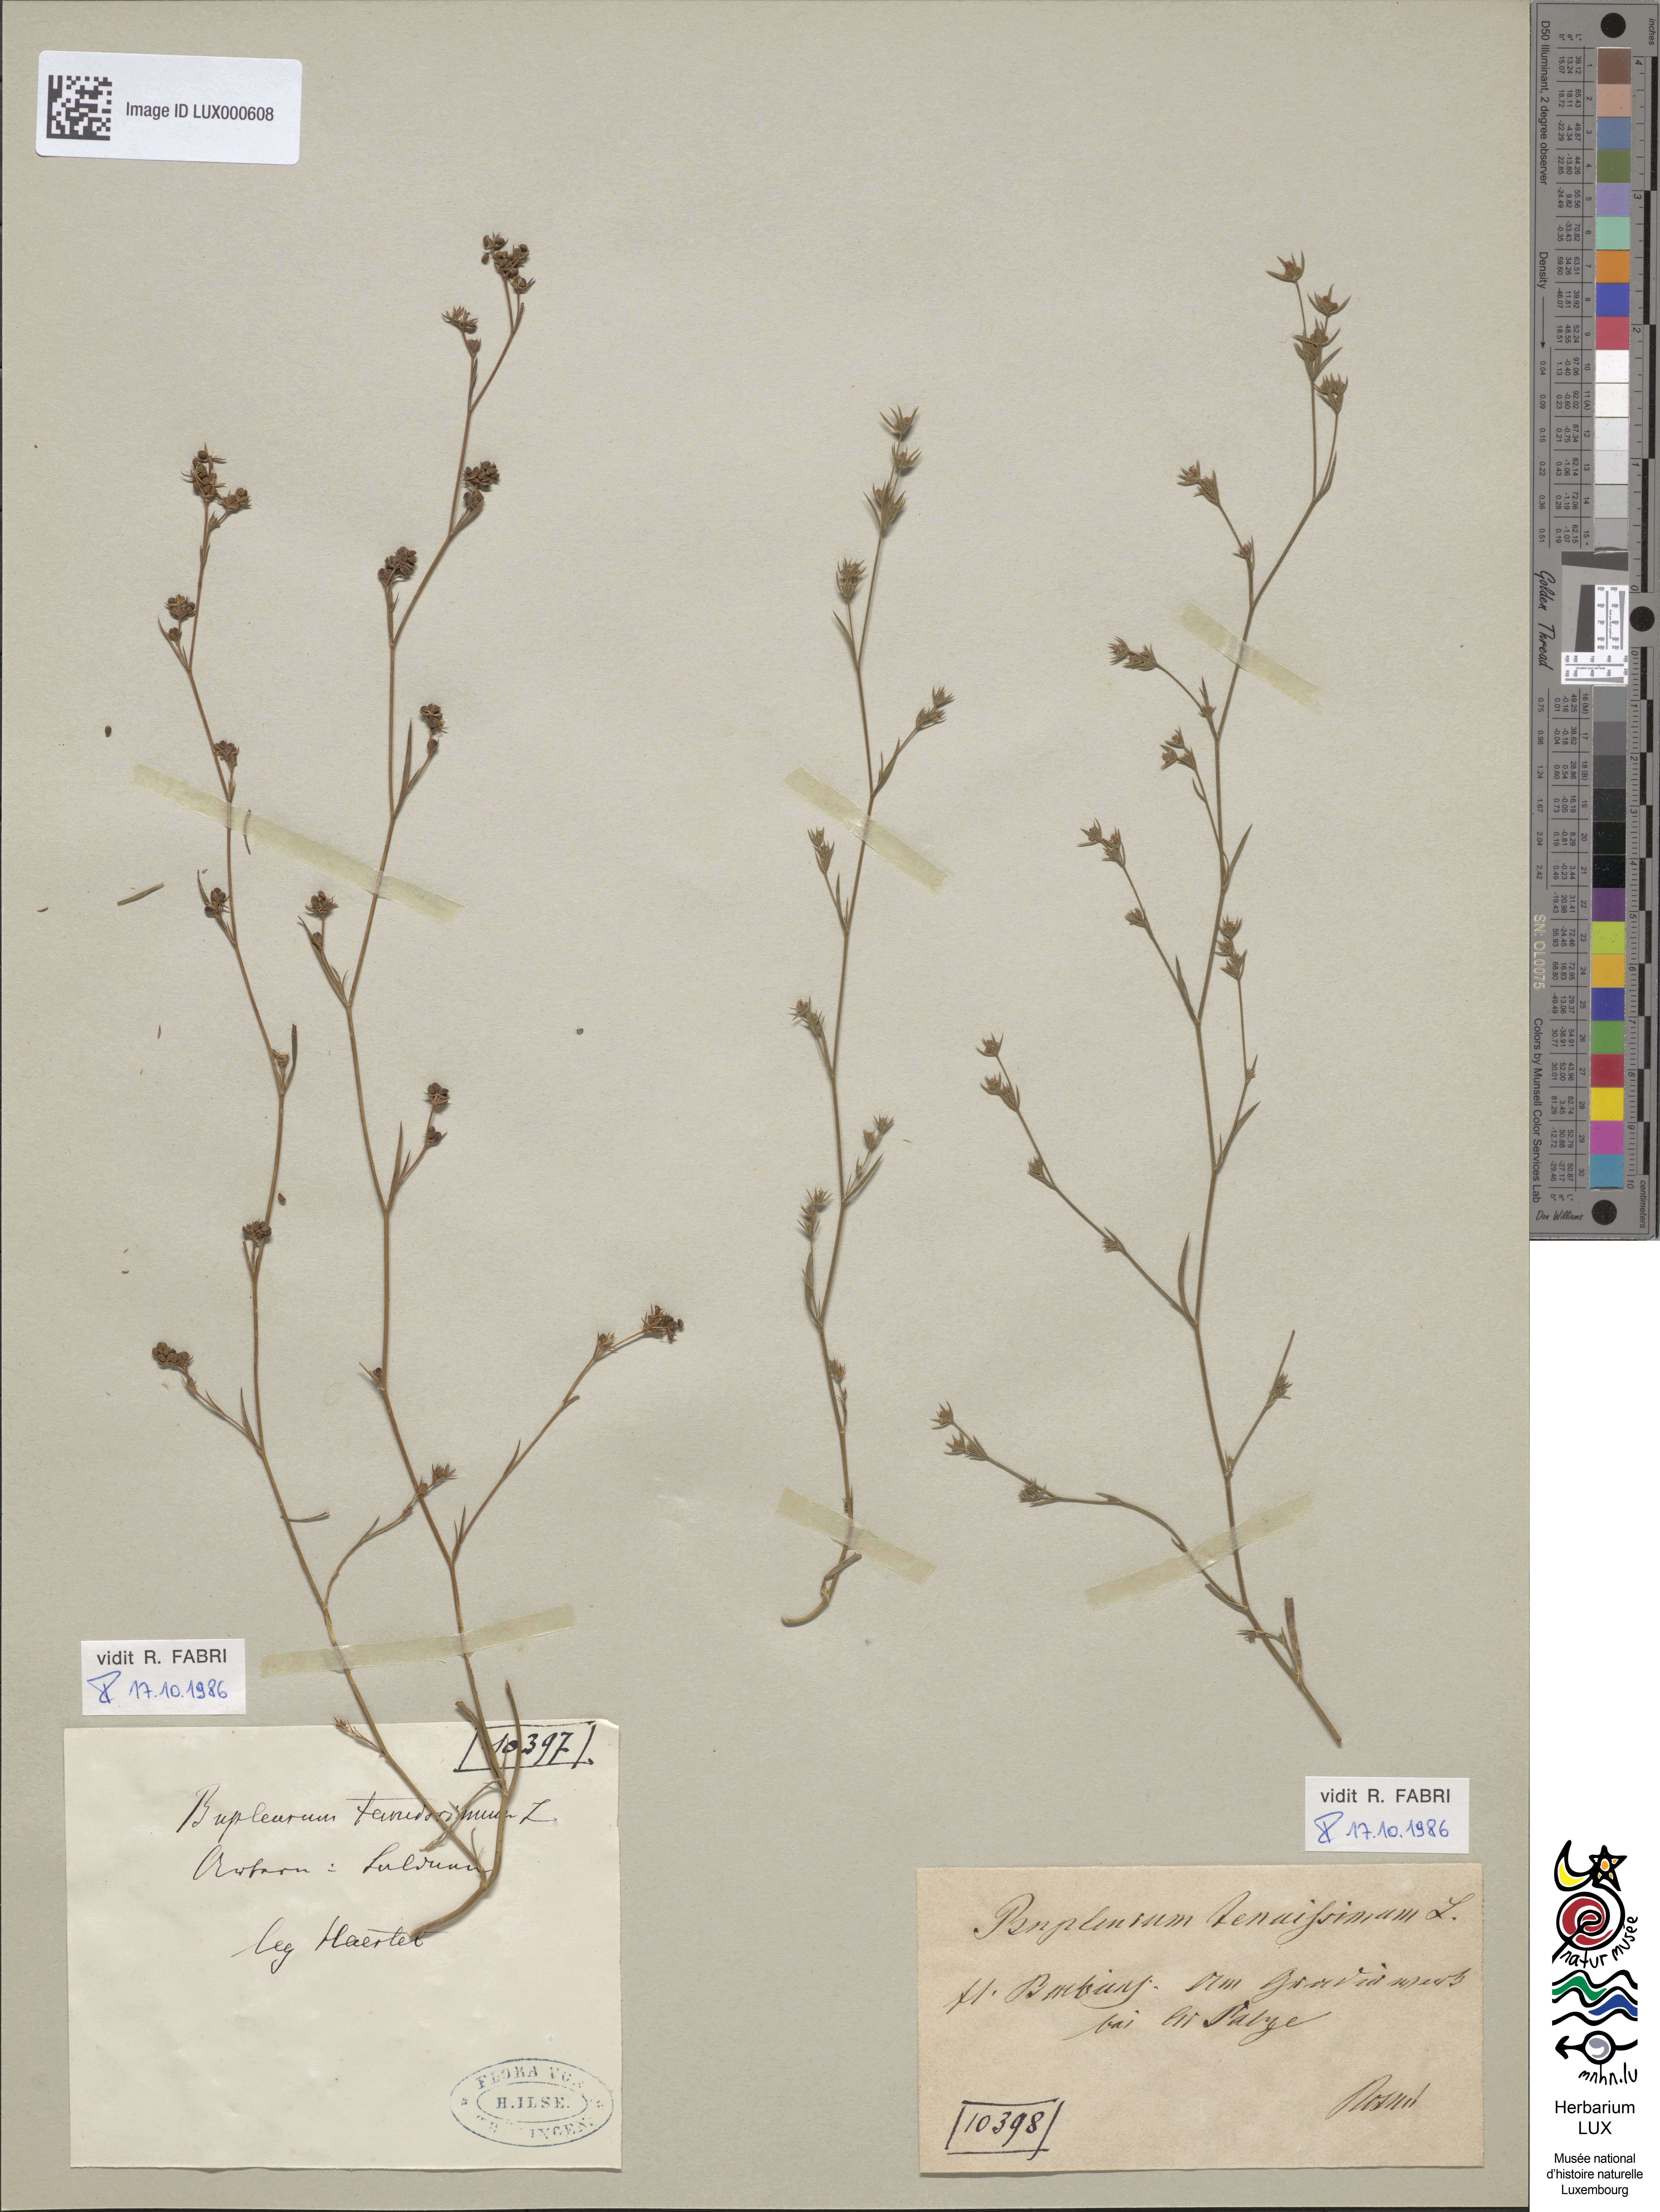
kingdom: Plantae
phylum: Tracheophyta
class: Magnoliopsida
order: Apiales
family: Apiaceae
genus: Bupleurum
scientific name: Bupleurum tenuissimum
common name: Slender hare's-ear
